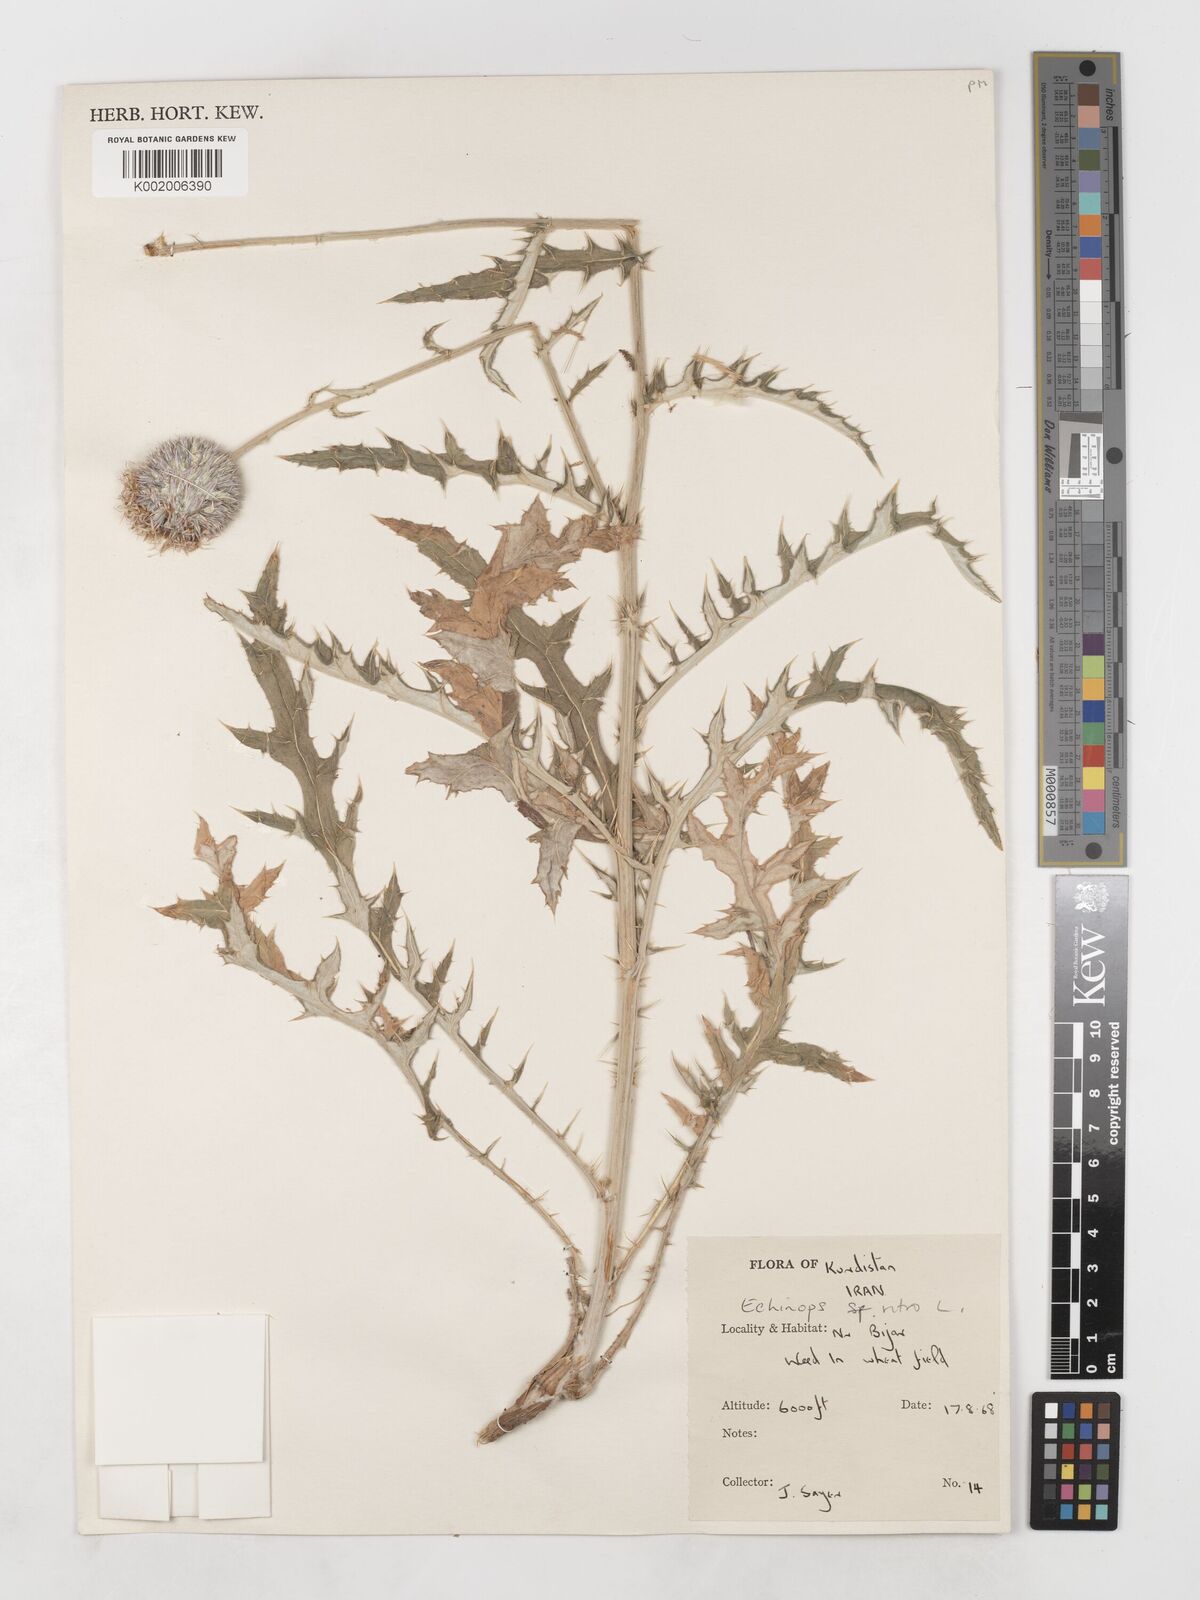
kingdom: Plantae
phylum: Tracheophyta
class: Magnoliopsida
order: Asterales
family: Asteraceae
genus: Echinops
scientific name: Echinops ritrodes
